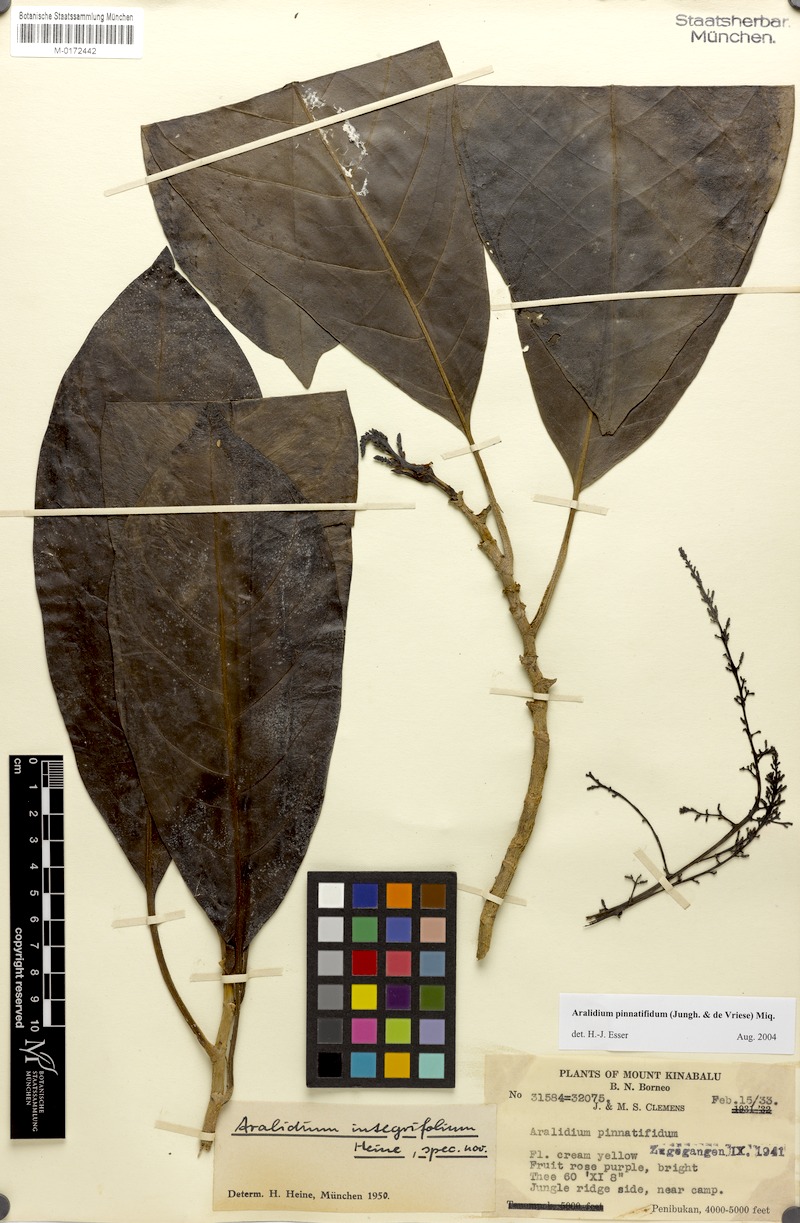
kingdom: Plantae
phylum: Tracheophyta
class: Magnoliopsida
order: Apiales
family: Torricelliaceae
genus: Aralidium
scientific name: Aralidium pinnatifidum
